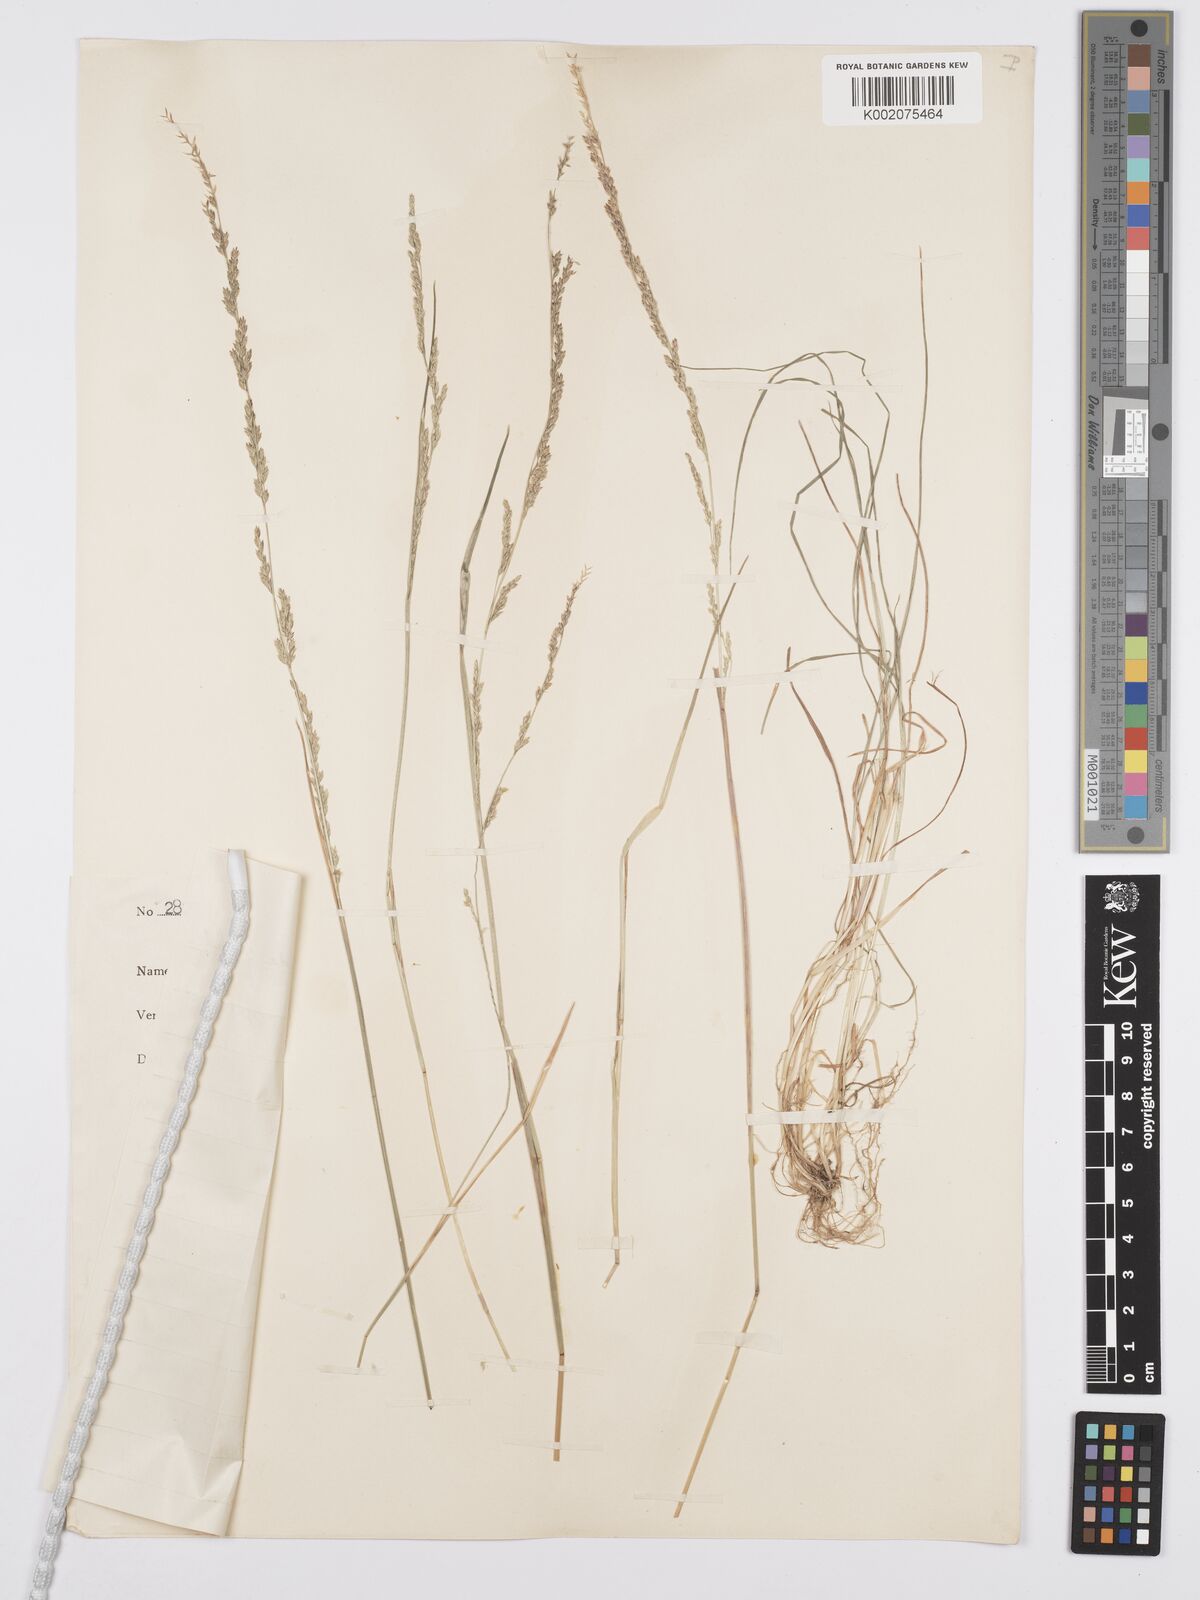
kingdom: Plantae
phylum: Tracheophyta
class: Liliopsida
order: Poales
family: Poaceae
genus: Poa
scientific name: Poa leptoclada
